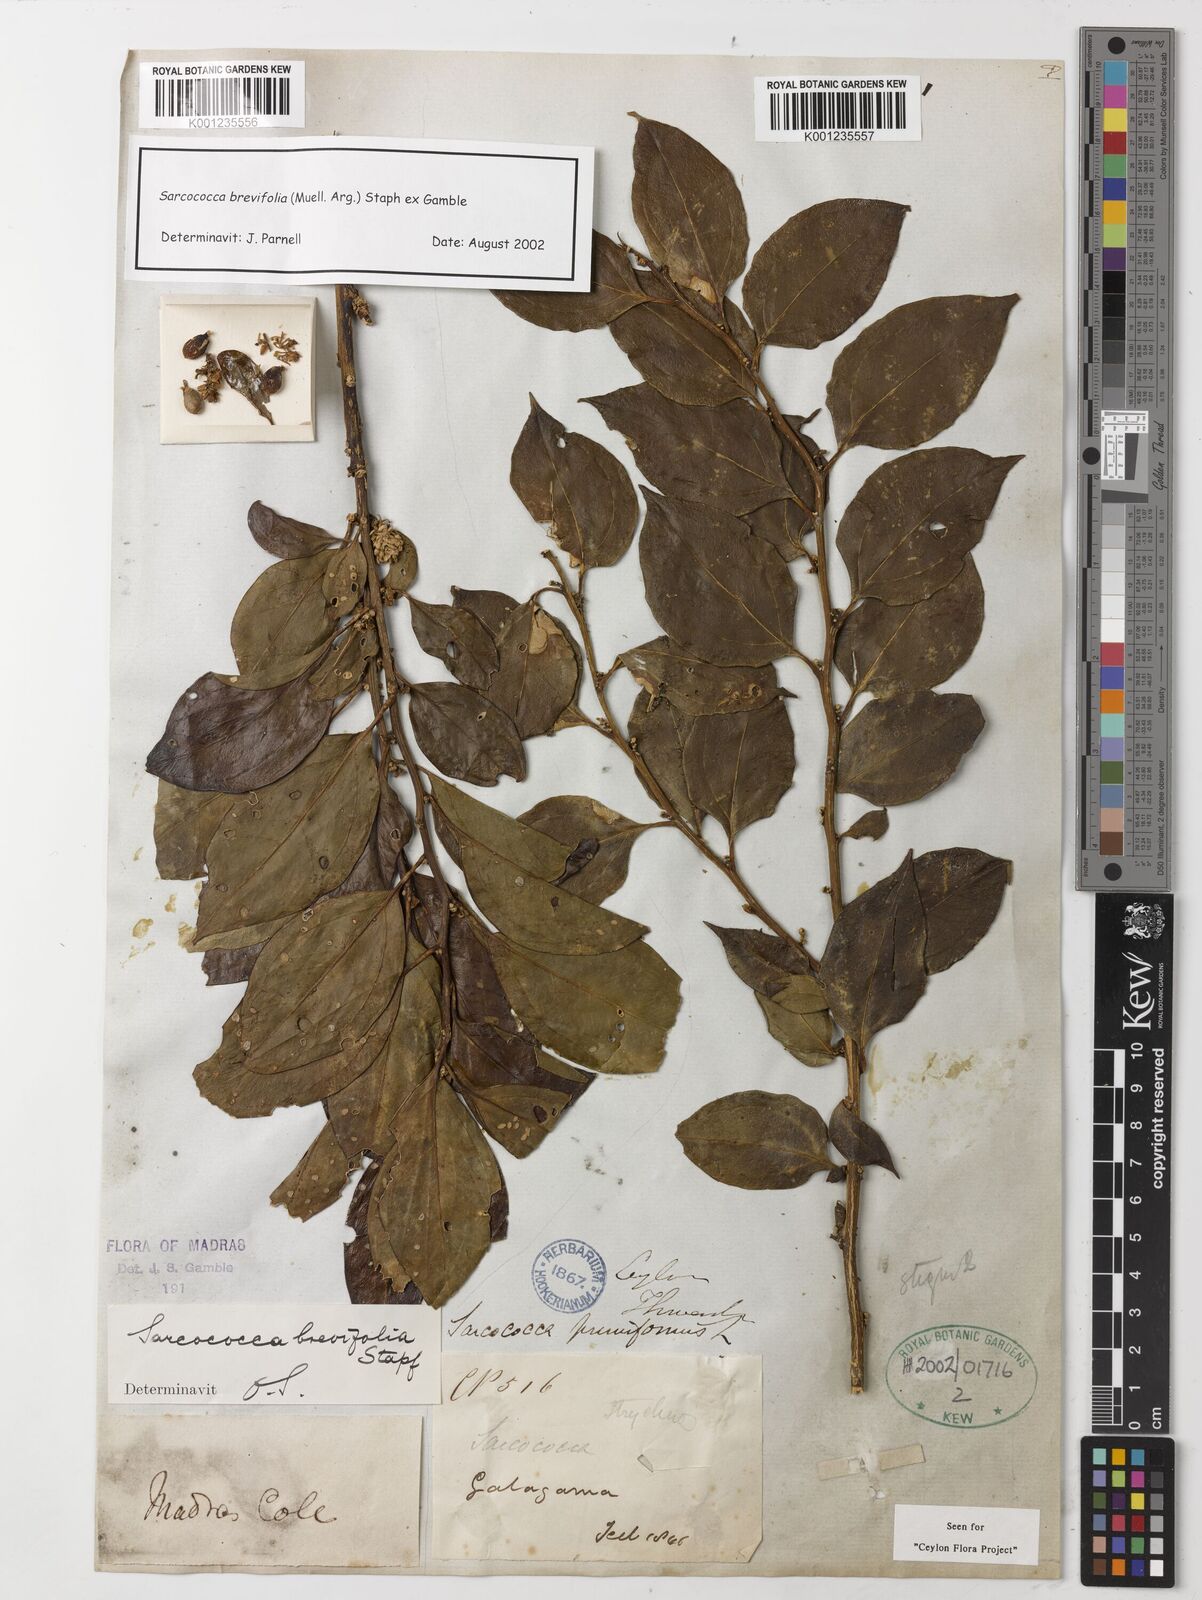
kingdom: Plantae
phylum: Tracheophyta
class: Magnoliopsida
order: Buxales
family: Buxaceae
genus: Sarcococca
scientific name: Sarcococca coriacea
